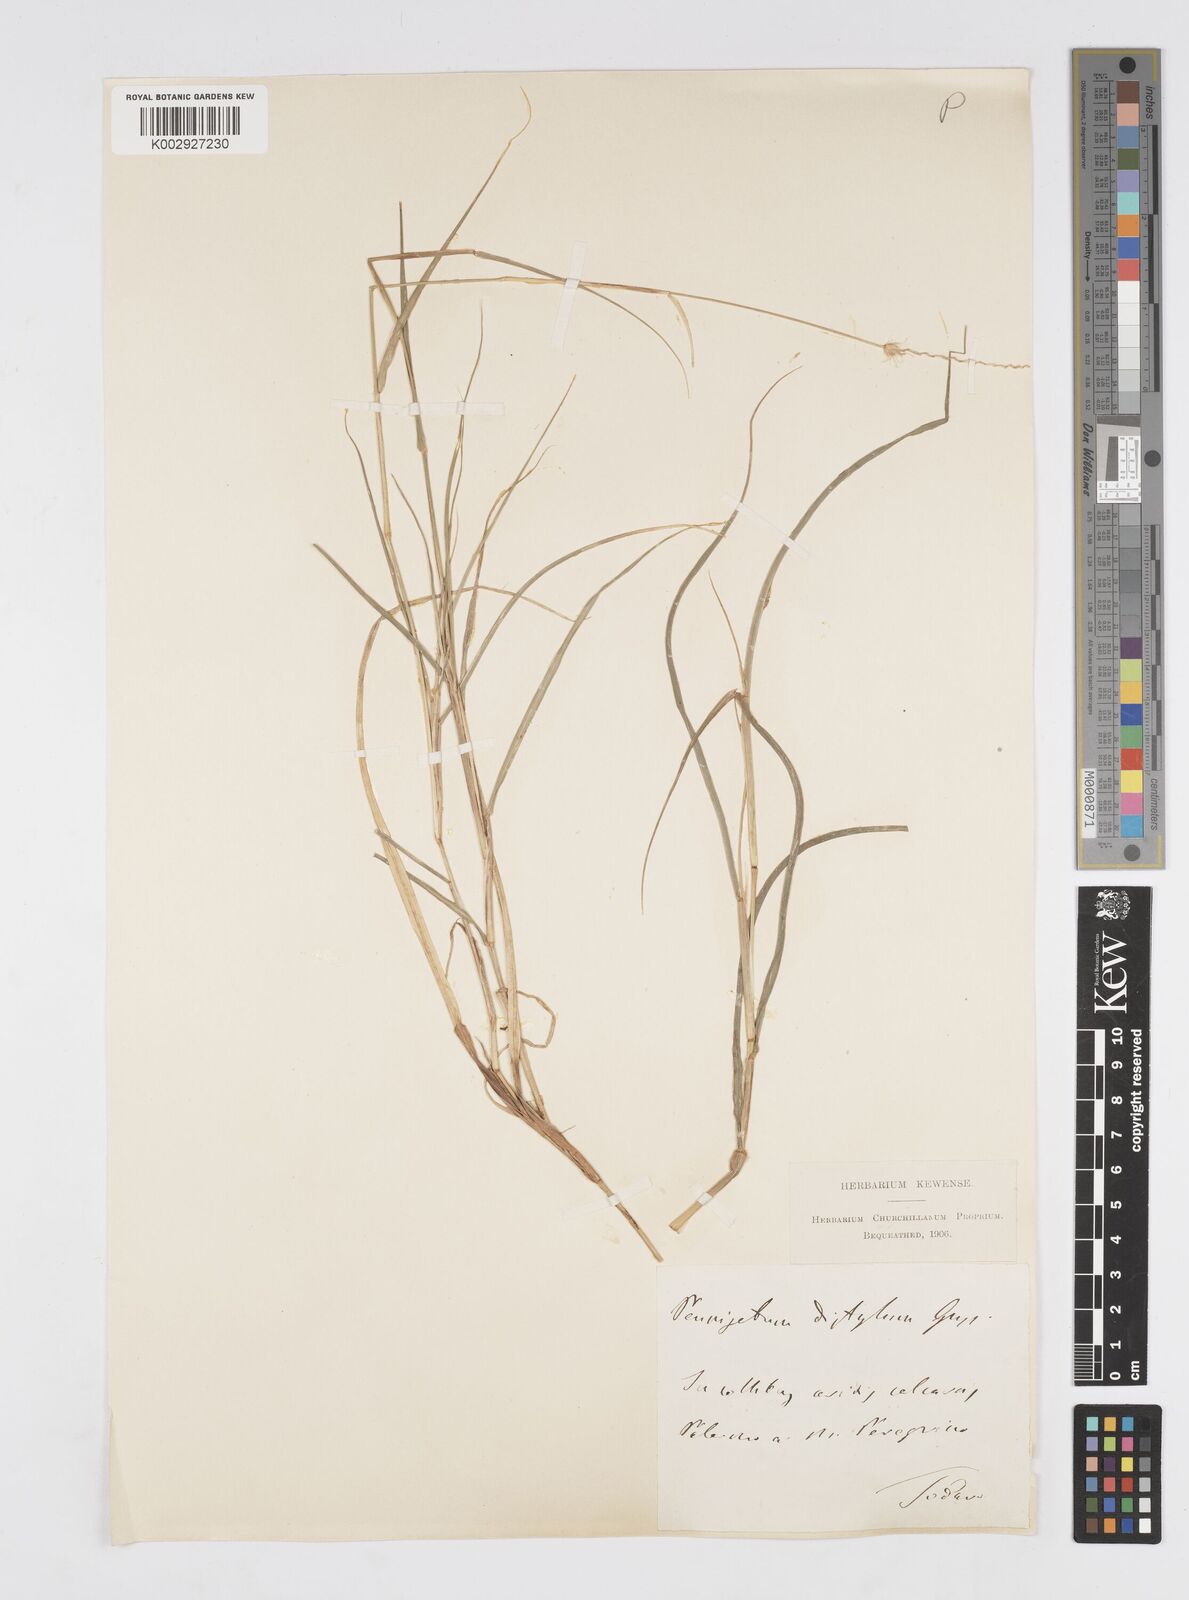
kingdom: Plantae
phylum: Tracheophyta
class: Liliopsida
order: Poales
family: Poaceae
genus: Cenchrus
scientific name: Cenchrus ciliaris
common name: Buffelgrass
